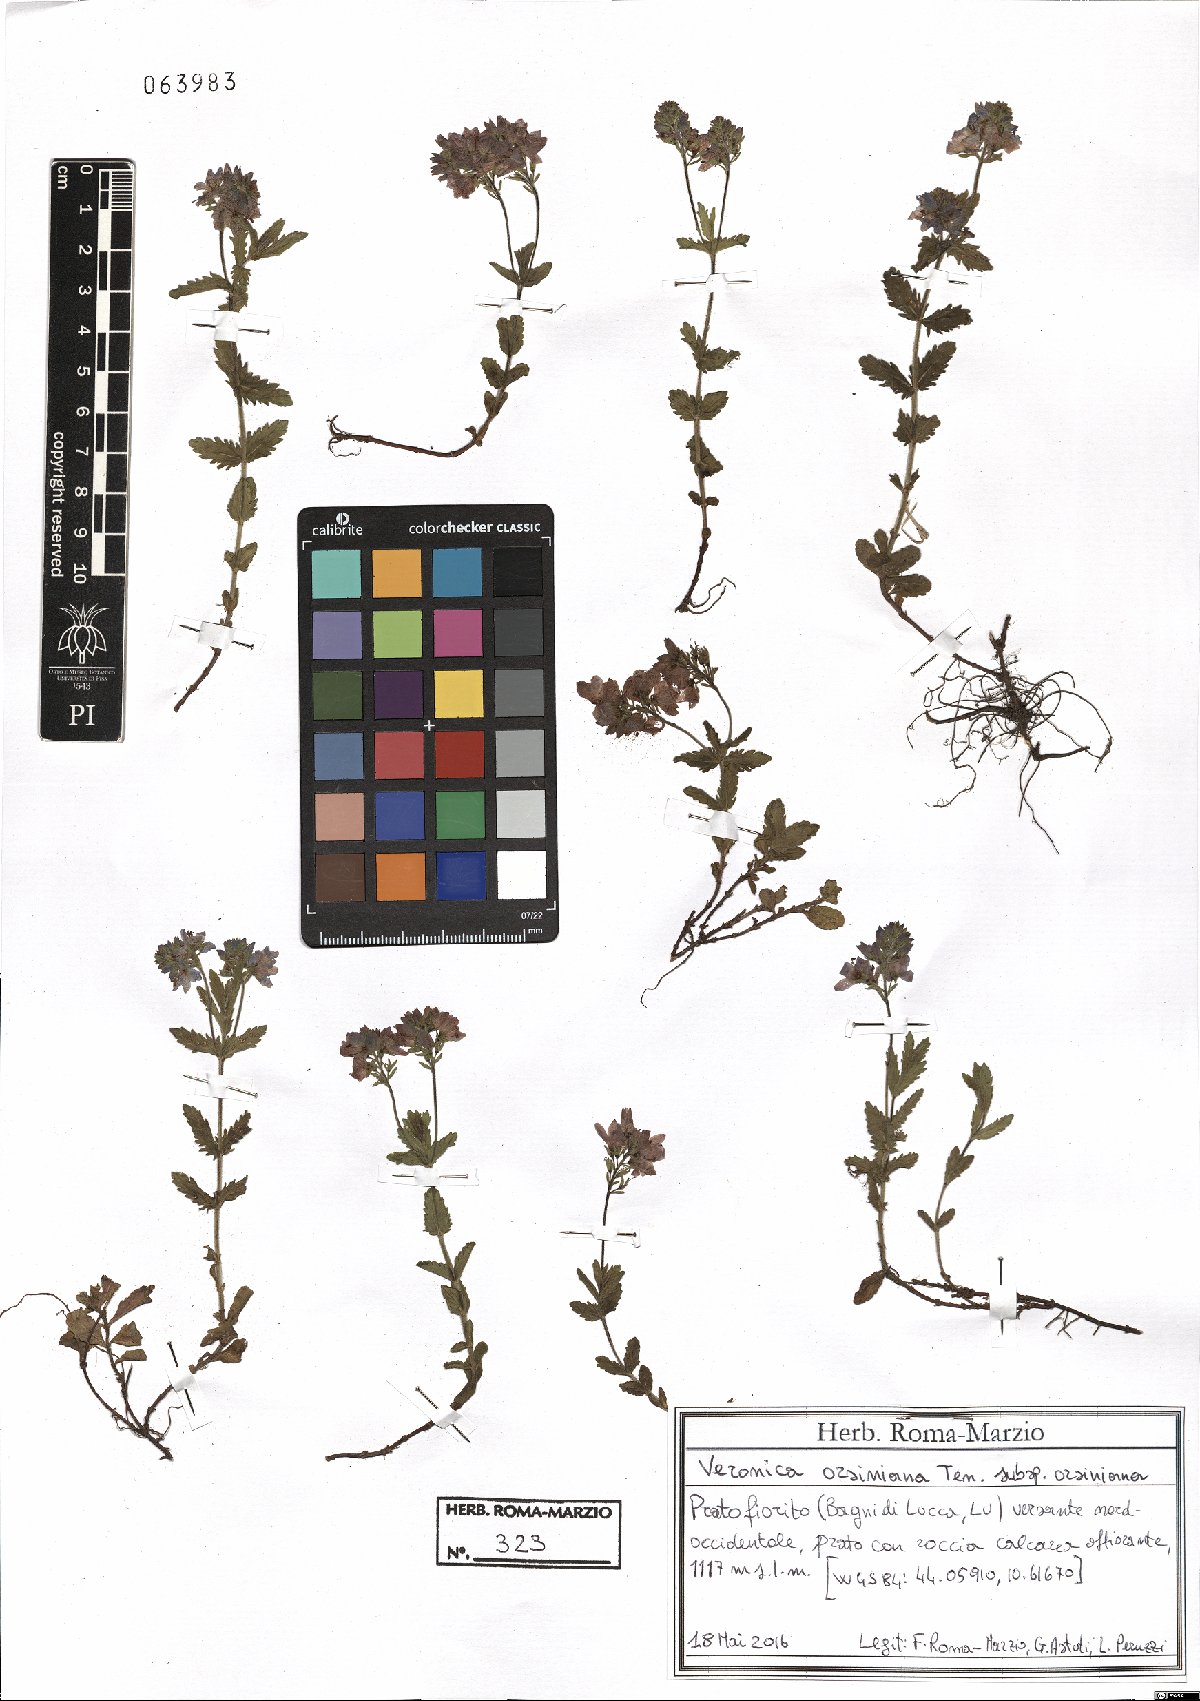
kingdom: Plantae
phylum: Tracheophyta
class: Magnoliopsida
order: Lamiales
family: Plantaginaceae
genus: Veronica
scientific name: Veronica orsiniana
